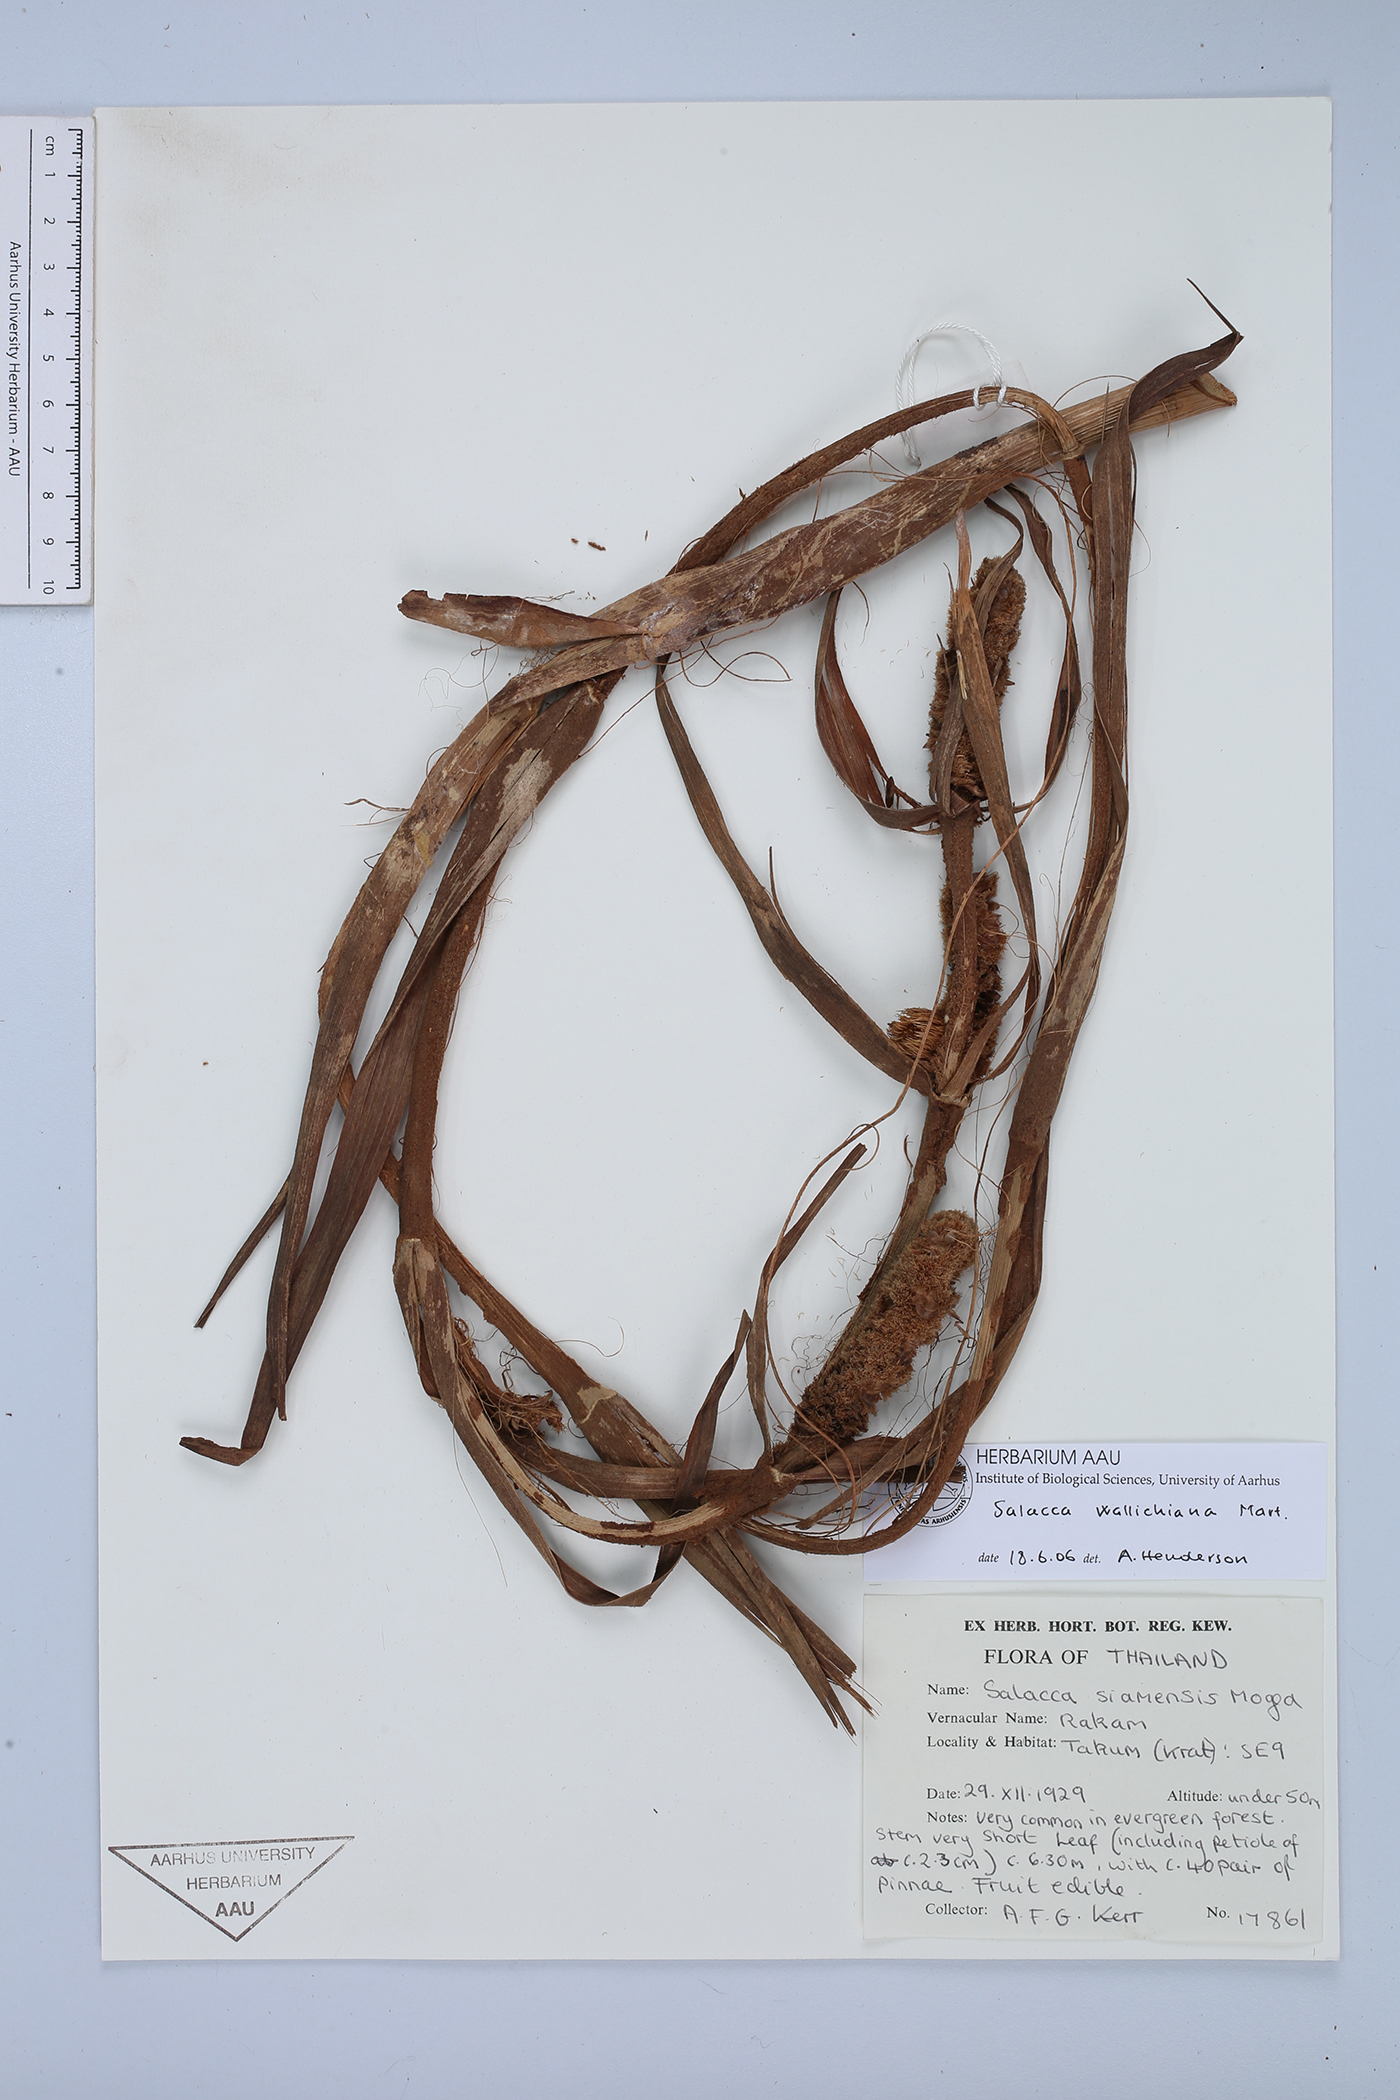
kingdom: Plantae
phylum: Tracheophyta
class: Liliopsida
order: Arecales
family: Arecaceae
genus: Salacca
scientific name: Salacca wallichiana
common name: Rakum palm
